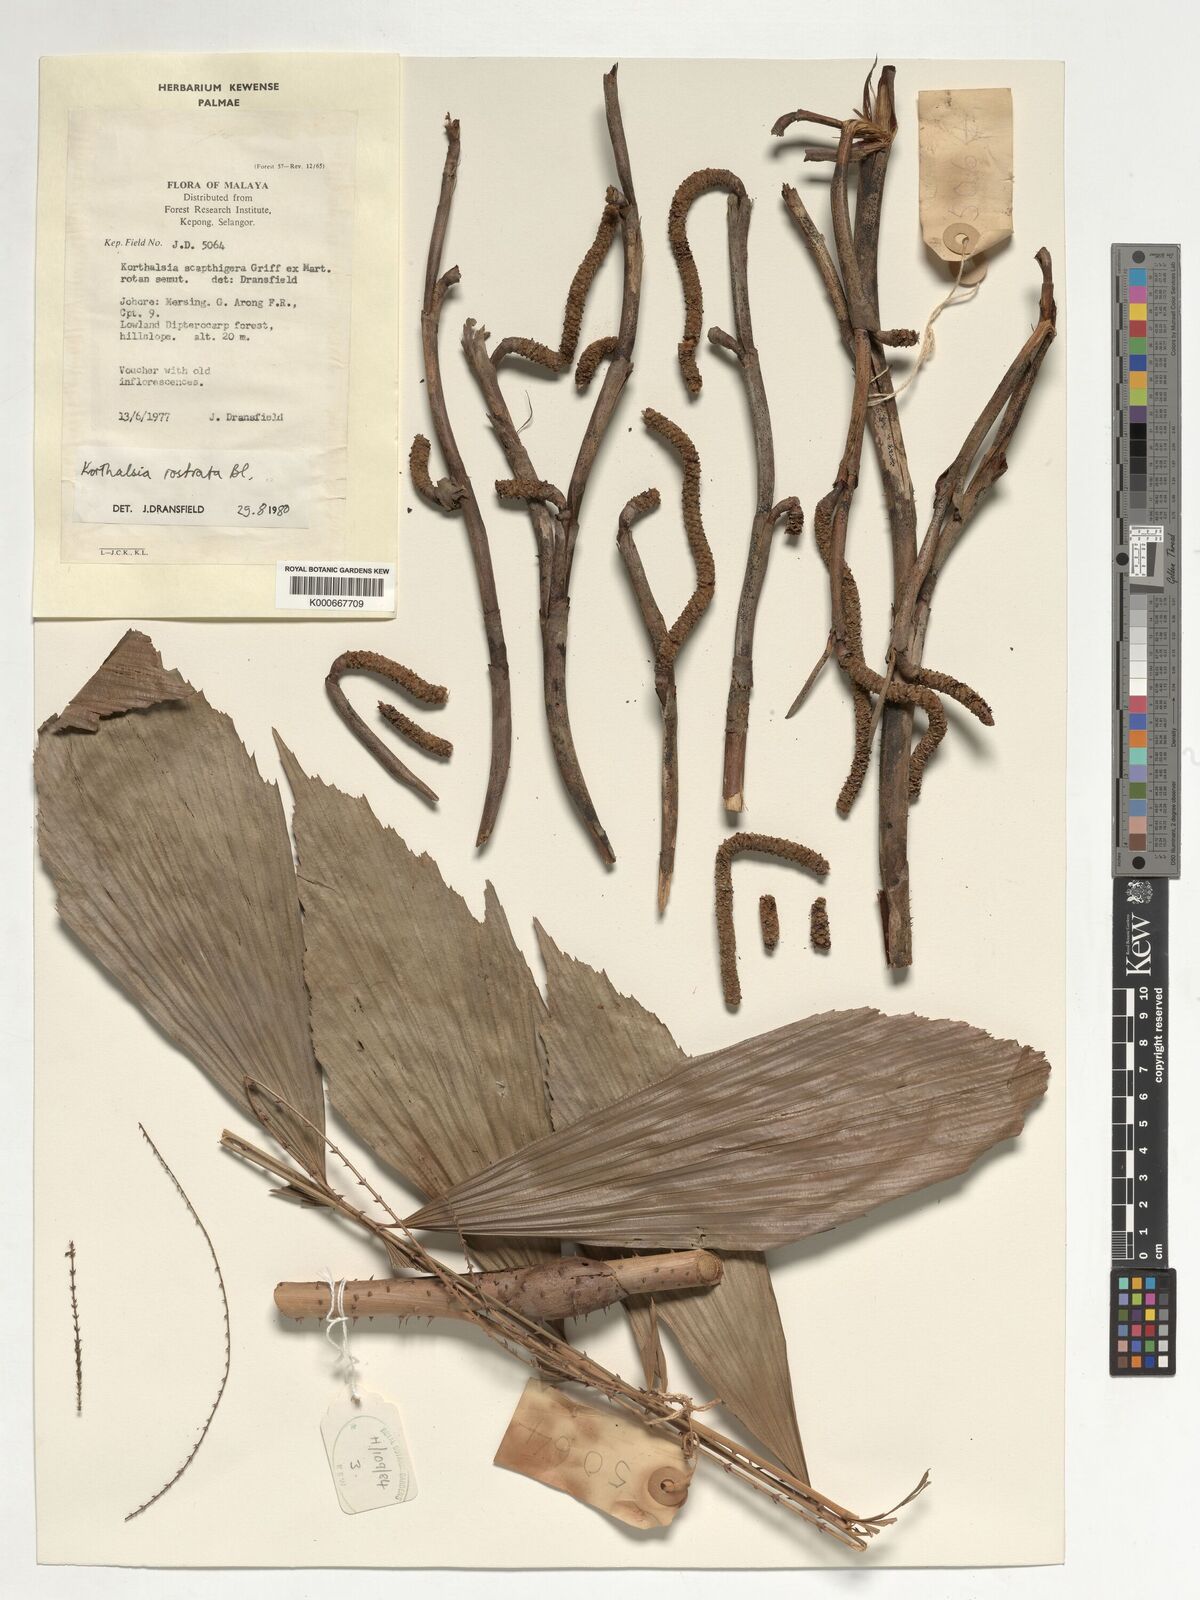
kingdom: Plantae
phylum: Tracheophyta
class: Liliopsida
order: Arecales
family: Arecaceae
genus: Korthalsia
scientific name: Korthalsia rostrata
